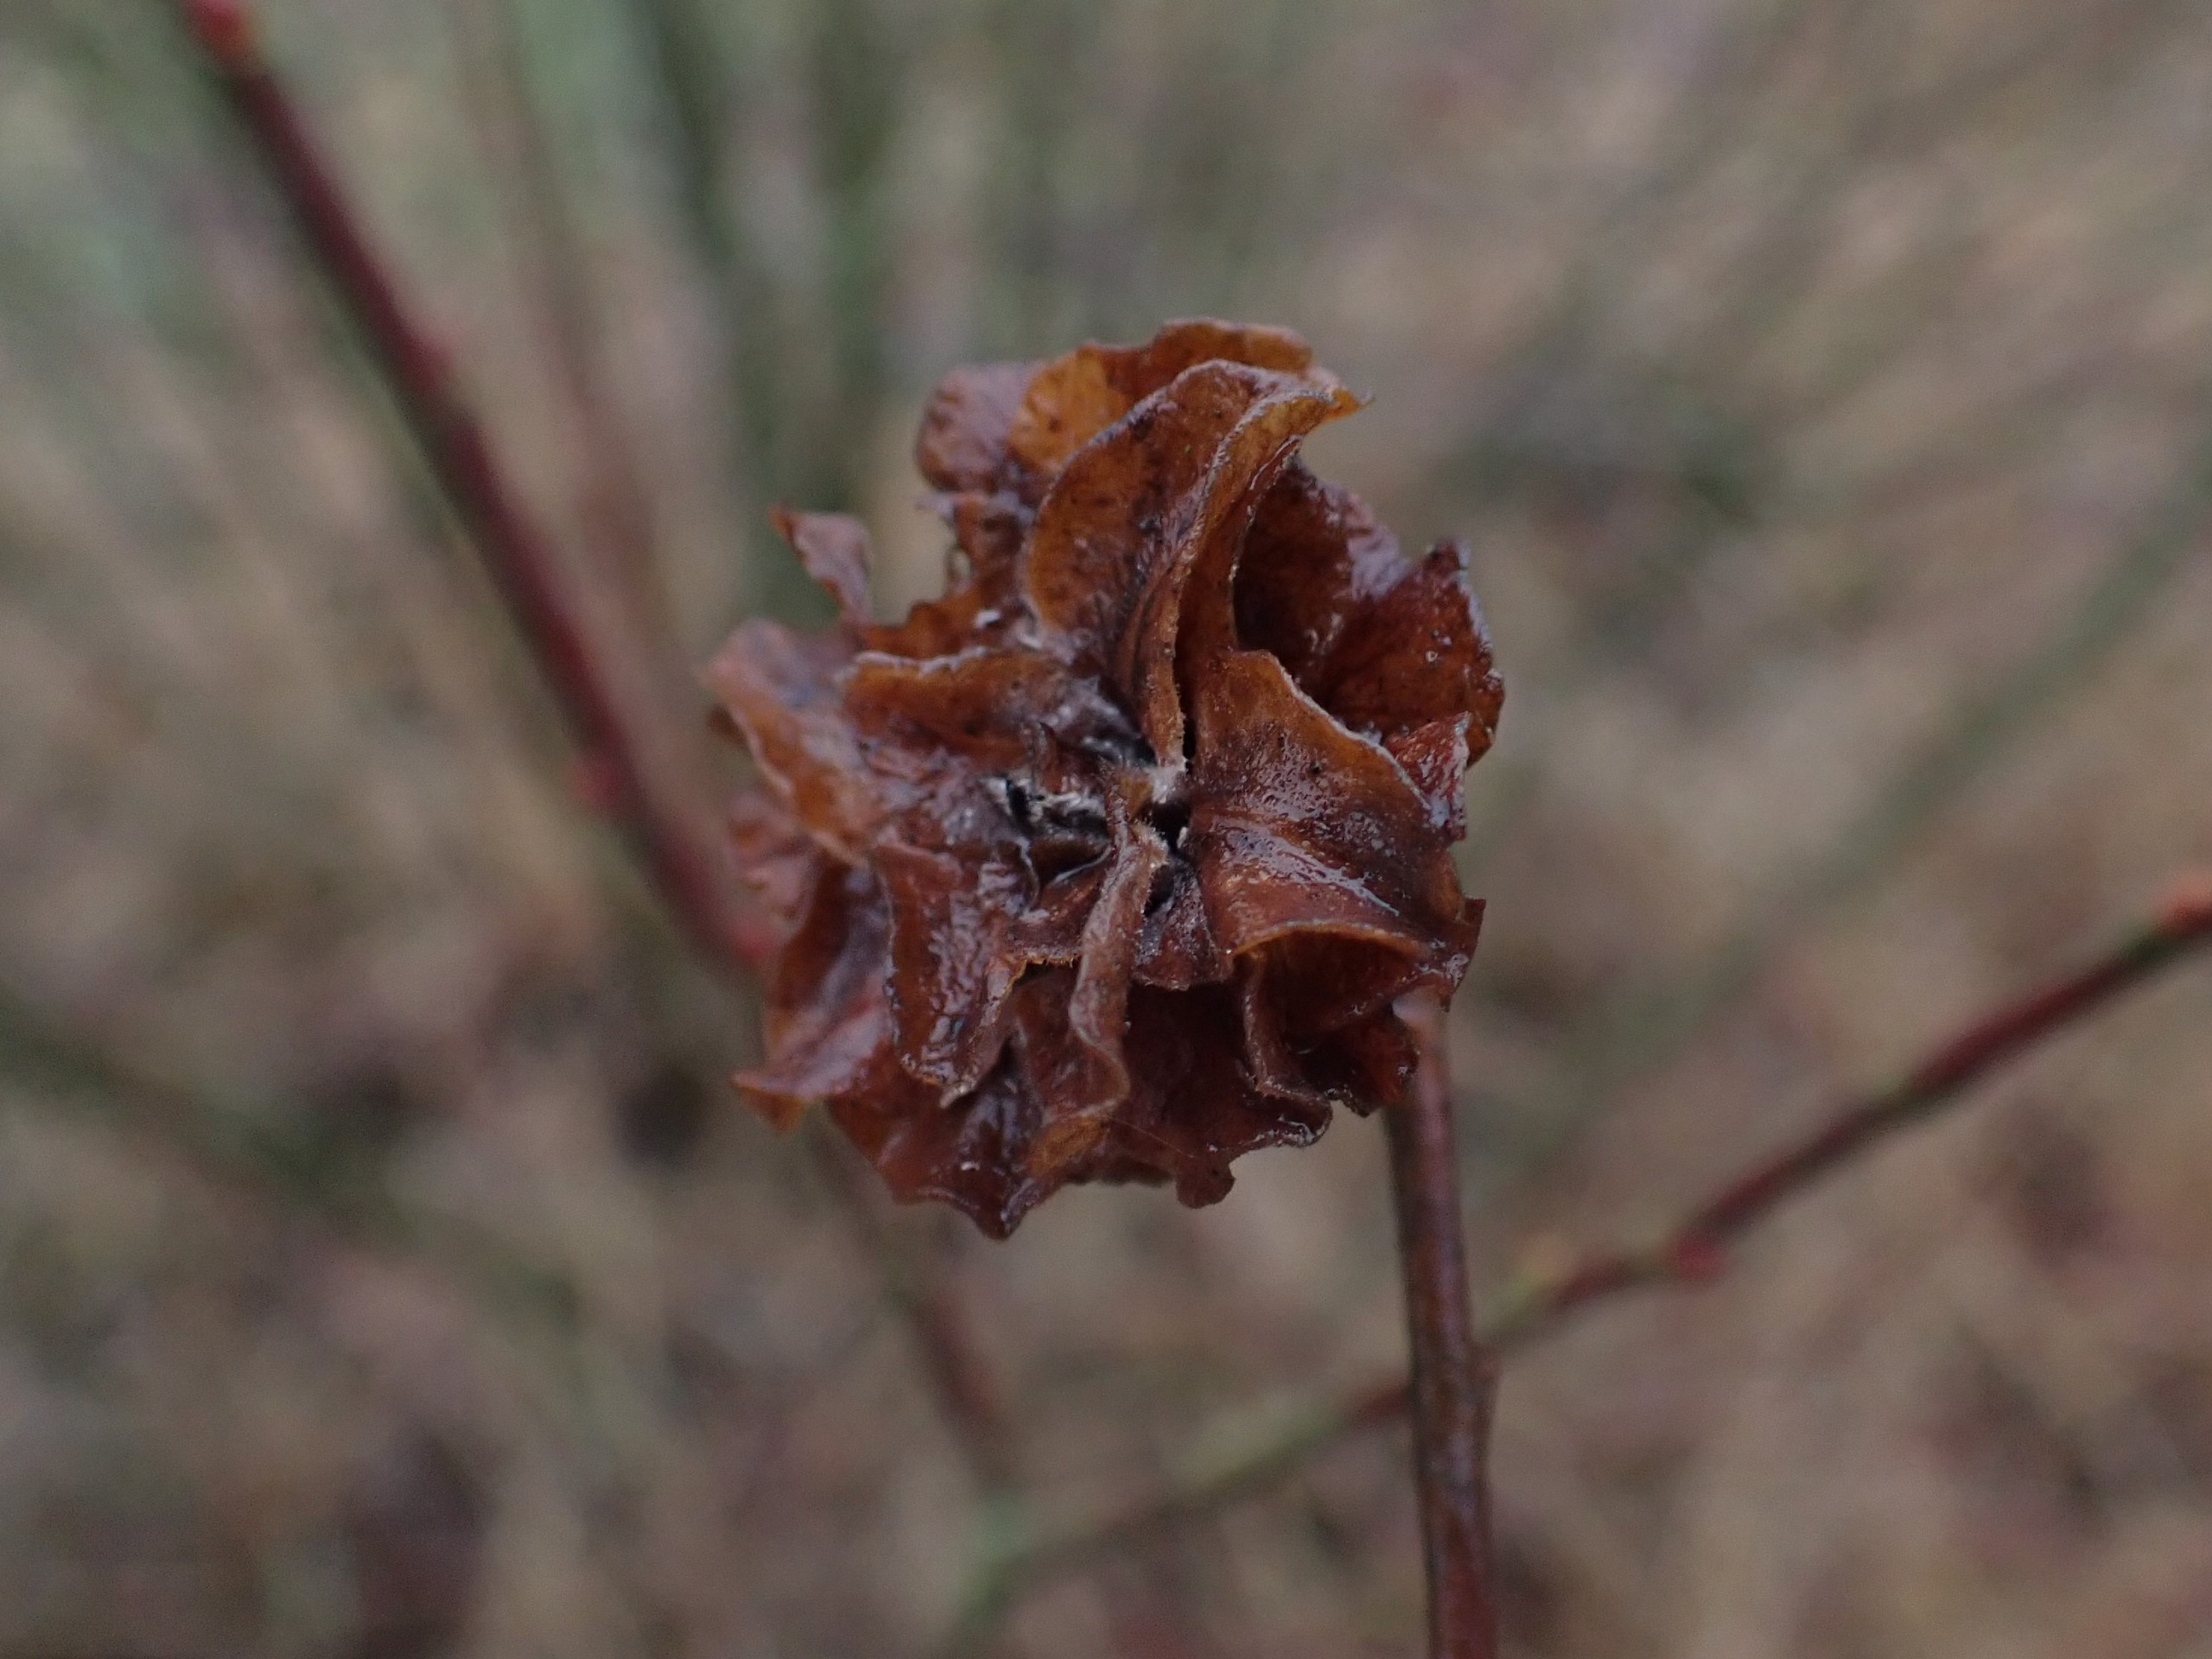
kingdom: Animalia
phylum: Arthropoda
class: Insecta
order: Diptera
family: Cecidomyiidae
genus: Rabdophaga
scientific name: Rabdophaga rosaria
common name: Pilerosetgalmyg
